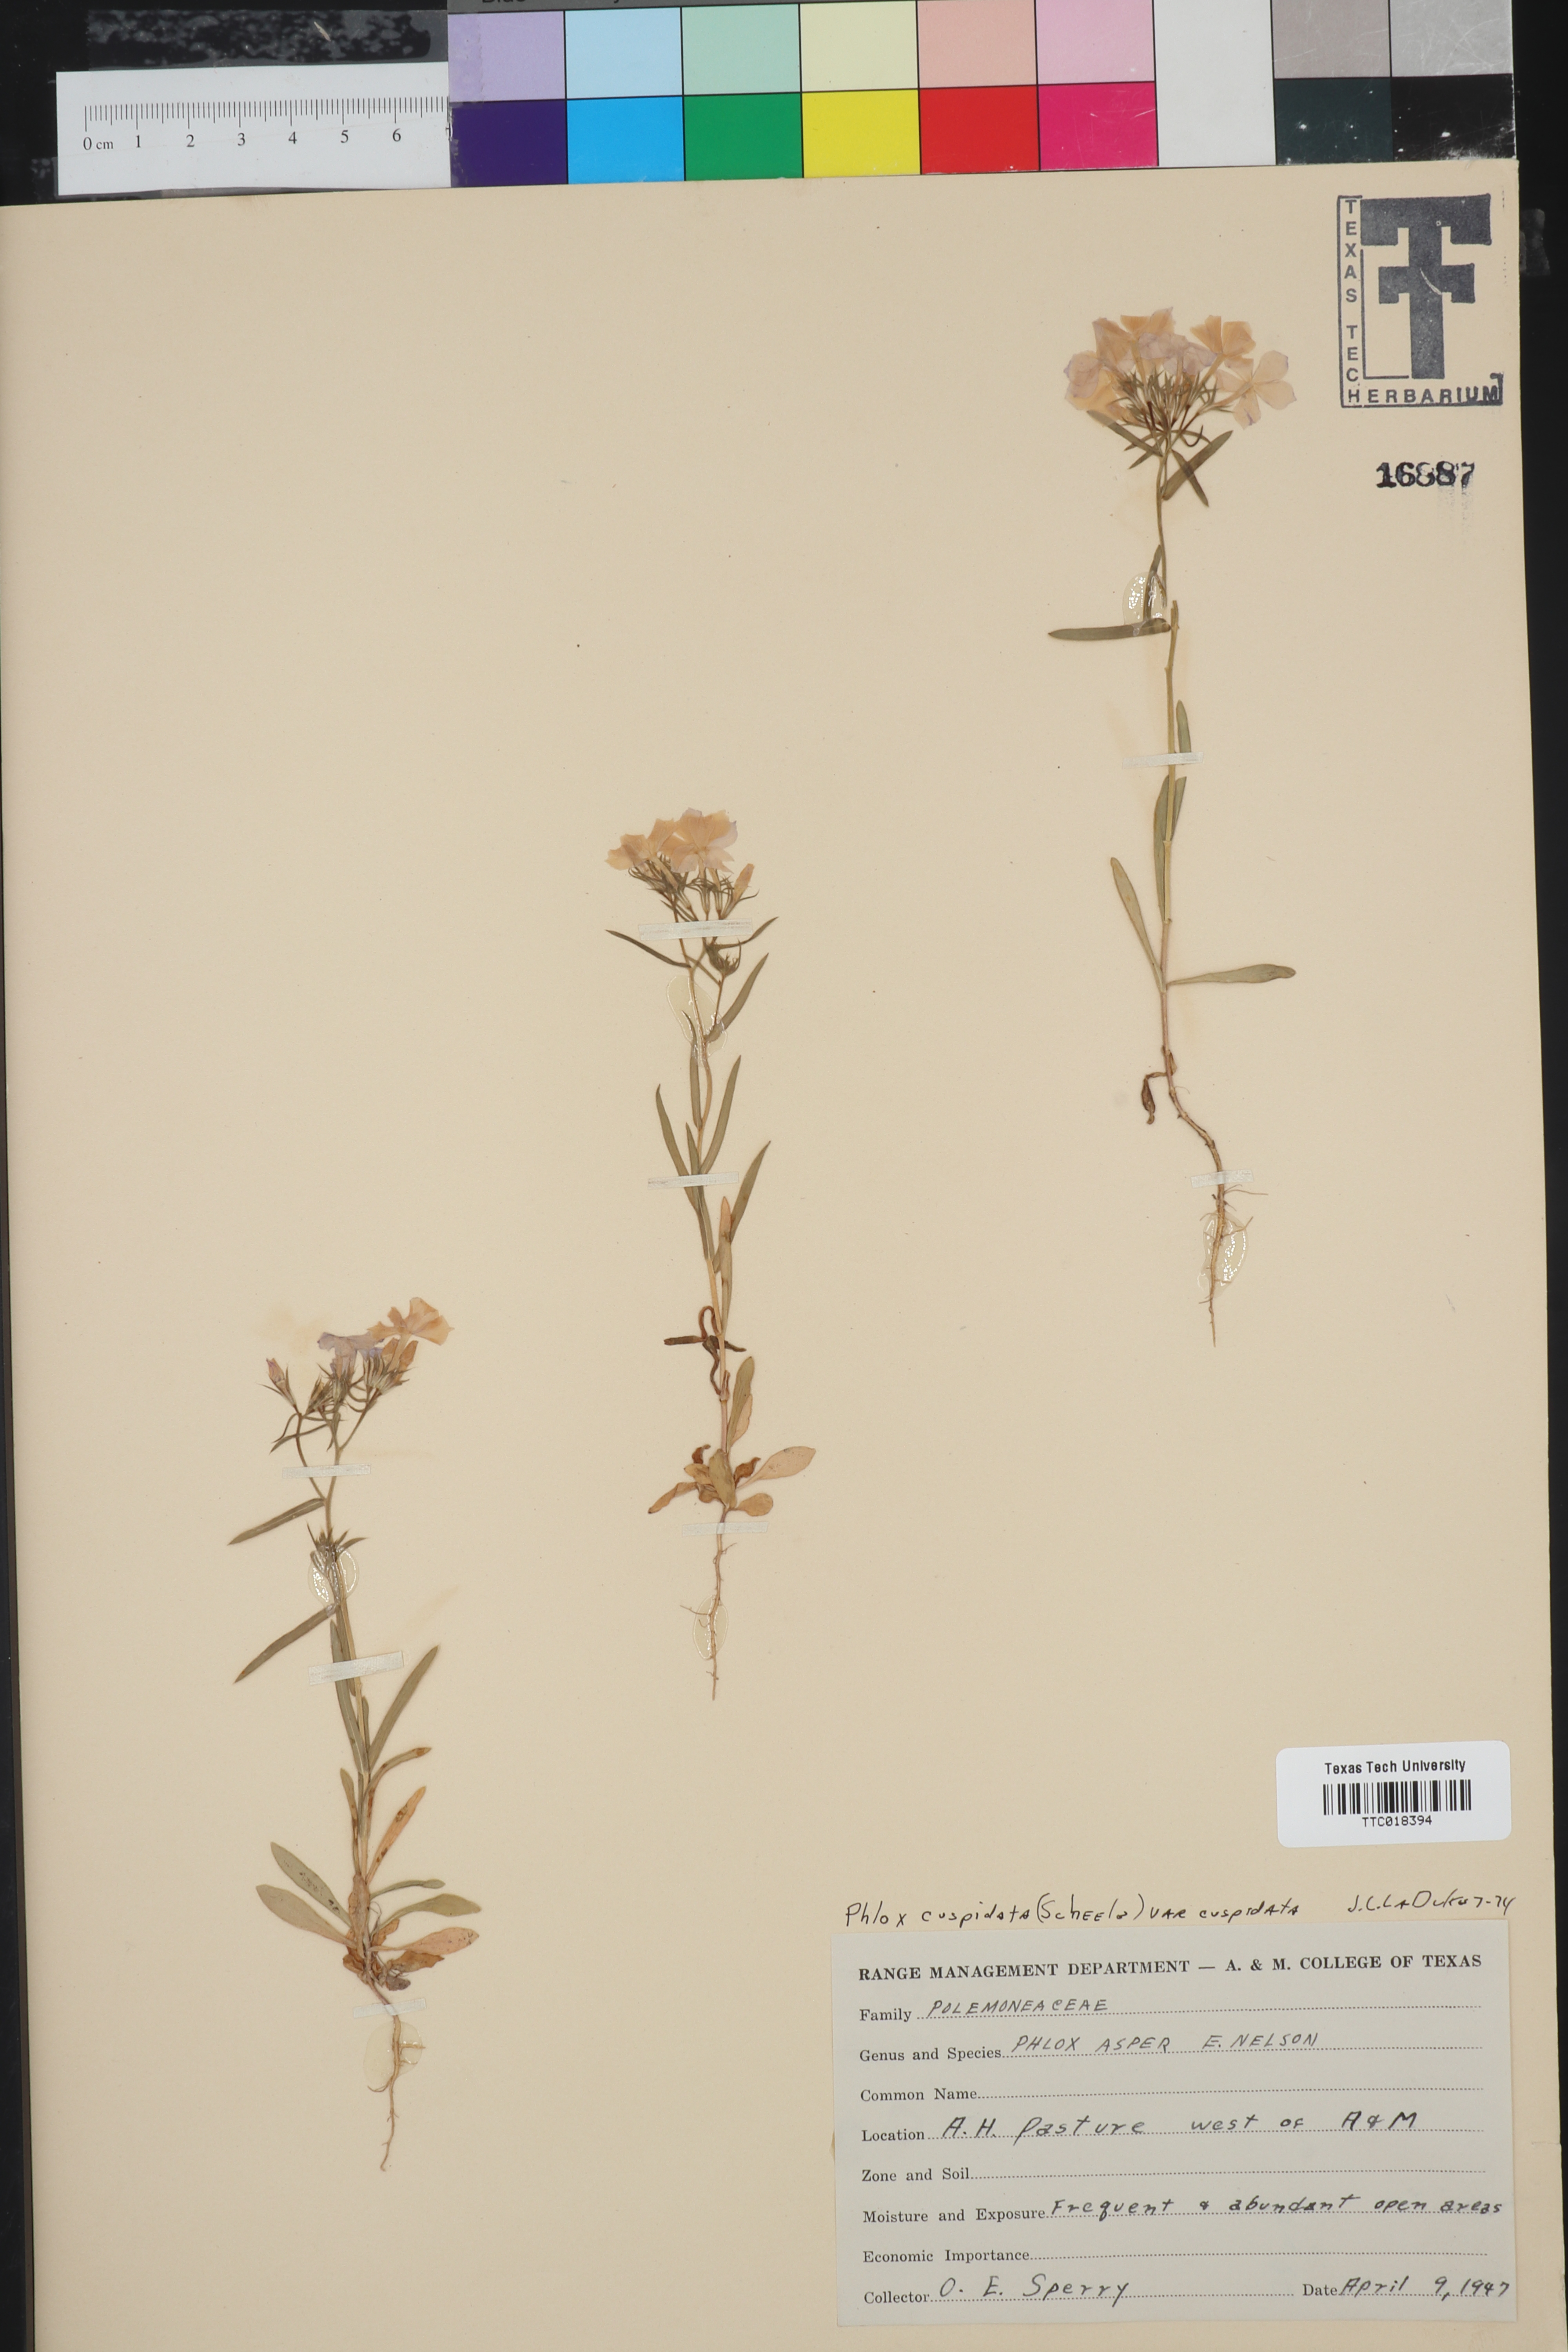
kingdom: Plantae
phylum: Tracheophyta
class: Magnoliopsida
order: Ericales
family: Polemoniaceae
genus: Phlox
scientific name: Phlox cuspidata
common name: Pointed phlox
